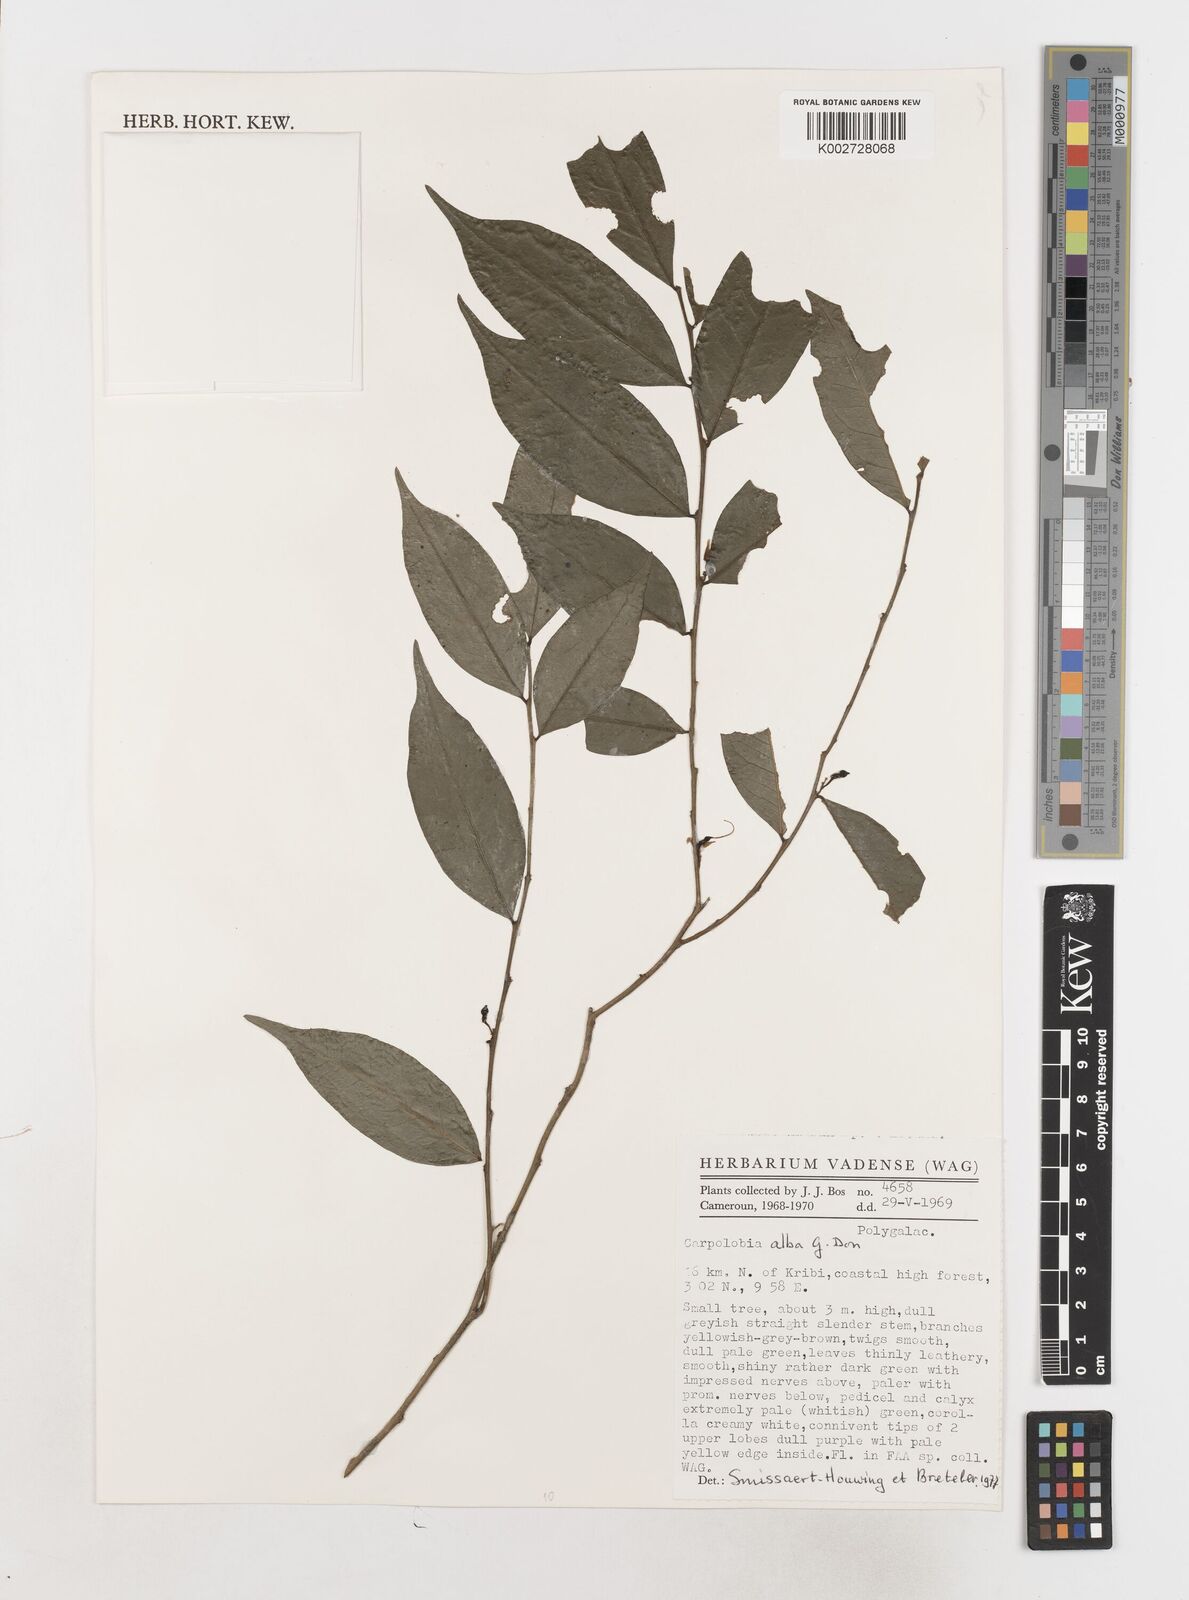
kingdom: Plantae
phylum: Tracheophyta
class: Magnoliopsida
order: Fabales
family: Polygalaceae
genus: Carpolobia
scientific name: Carpolobia alba
